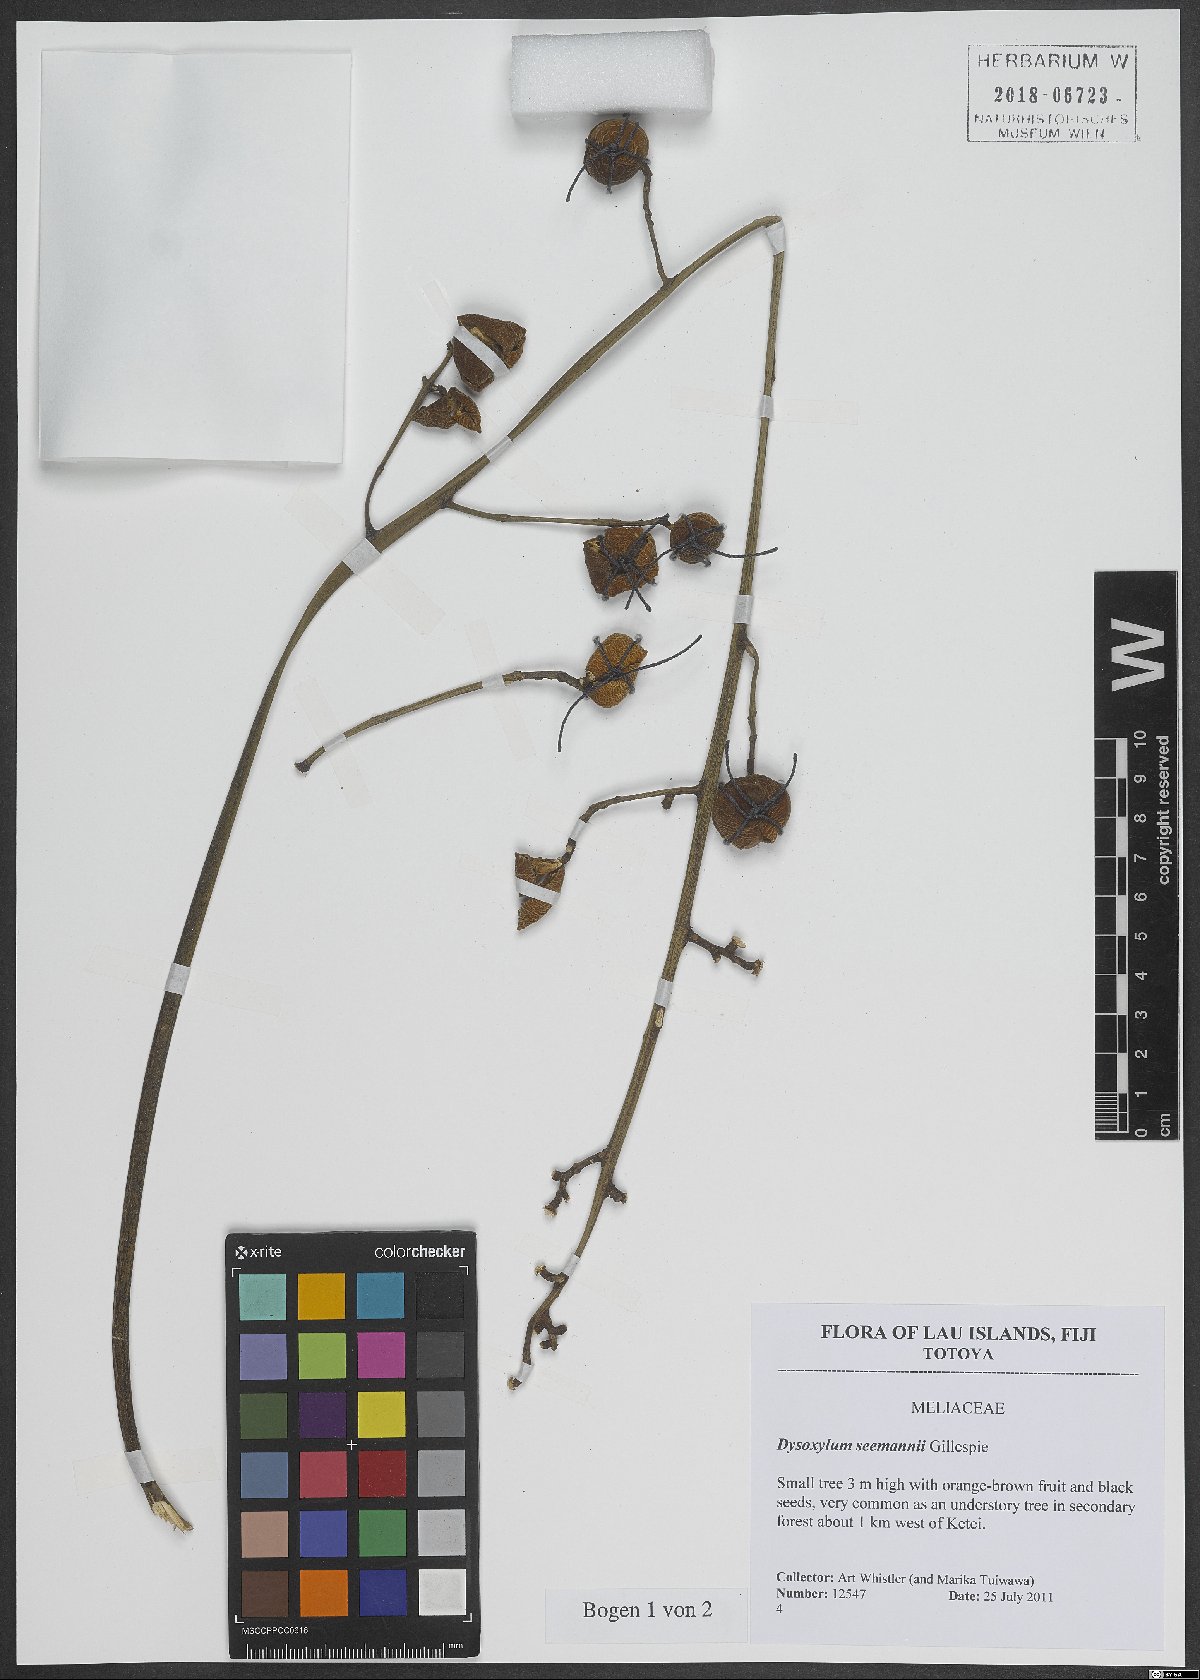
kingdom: Plantae
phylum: Tracheophyta
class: Magnoliopsida
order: Sapindales
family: Meliaceae
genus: Didymocheton
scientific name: Didymocheton multijugus
